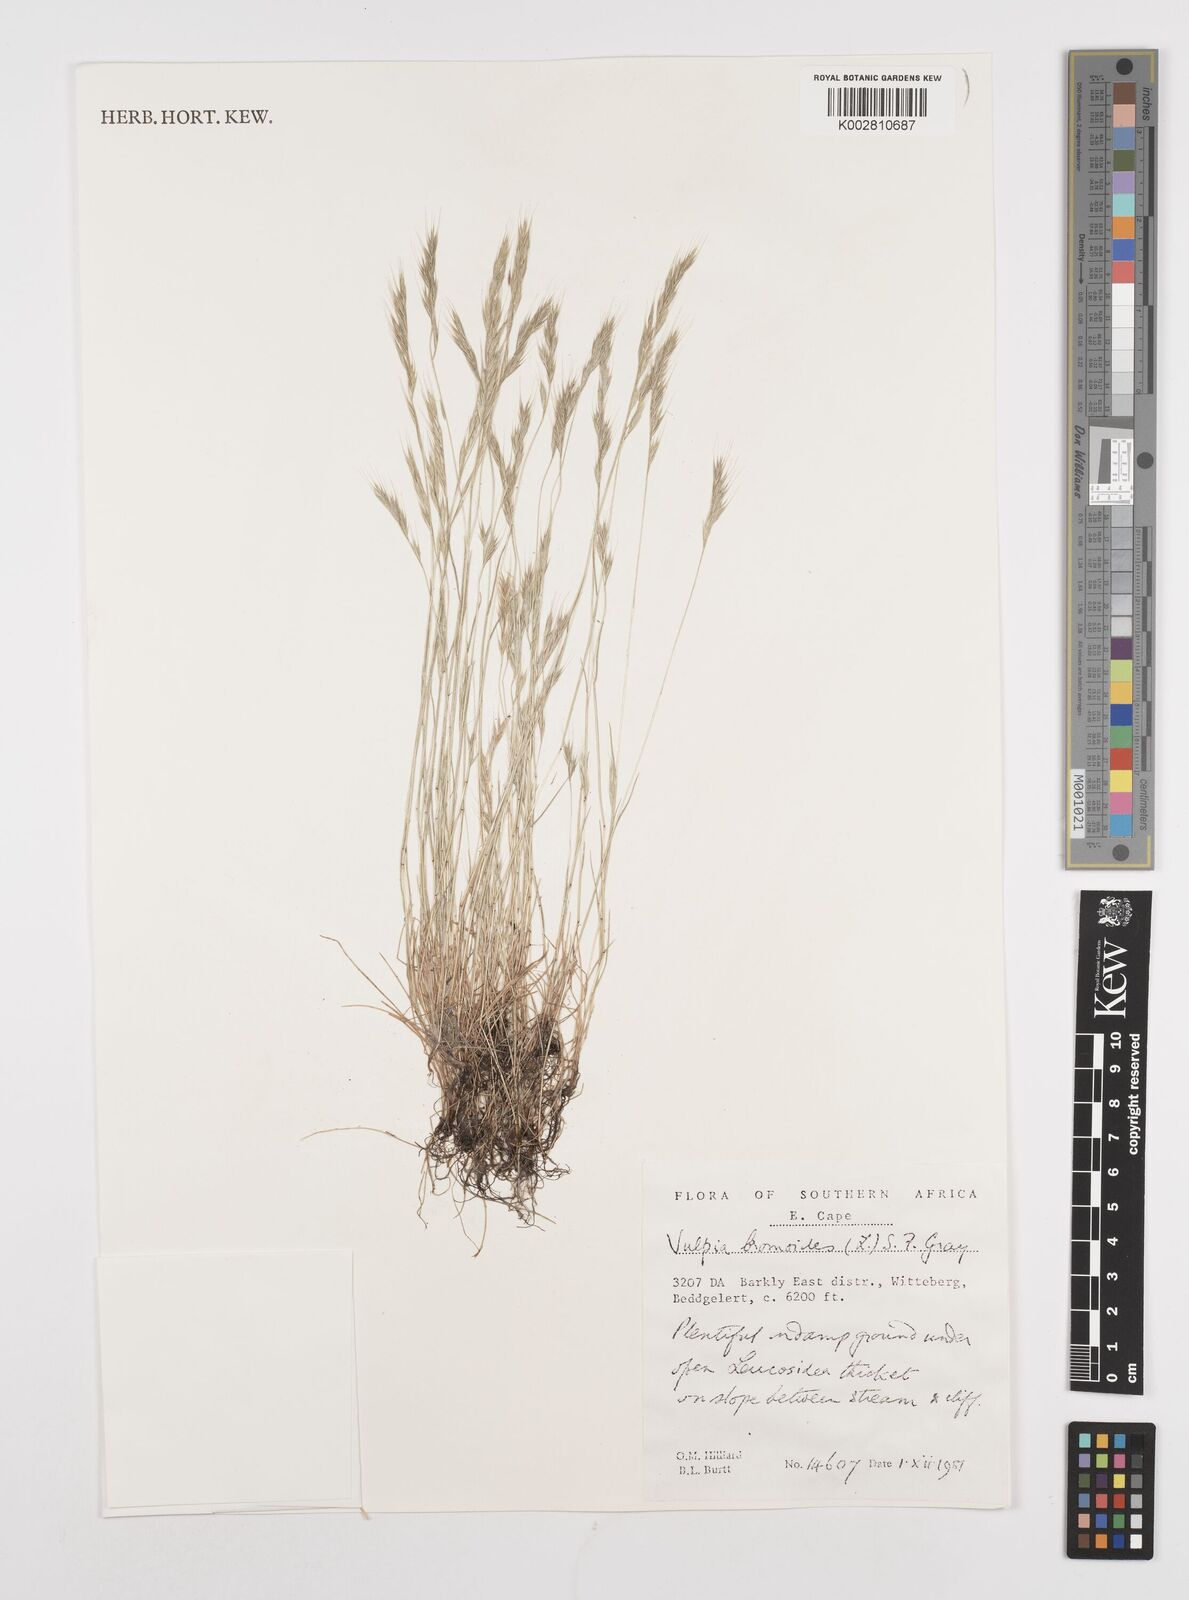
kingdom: Plantae
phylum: Tracheophyta
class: Liliopsida
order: Poales
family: Poaceae
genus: Festuca
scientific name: Festuca bromoides
